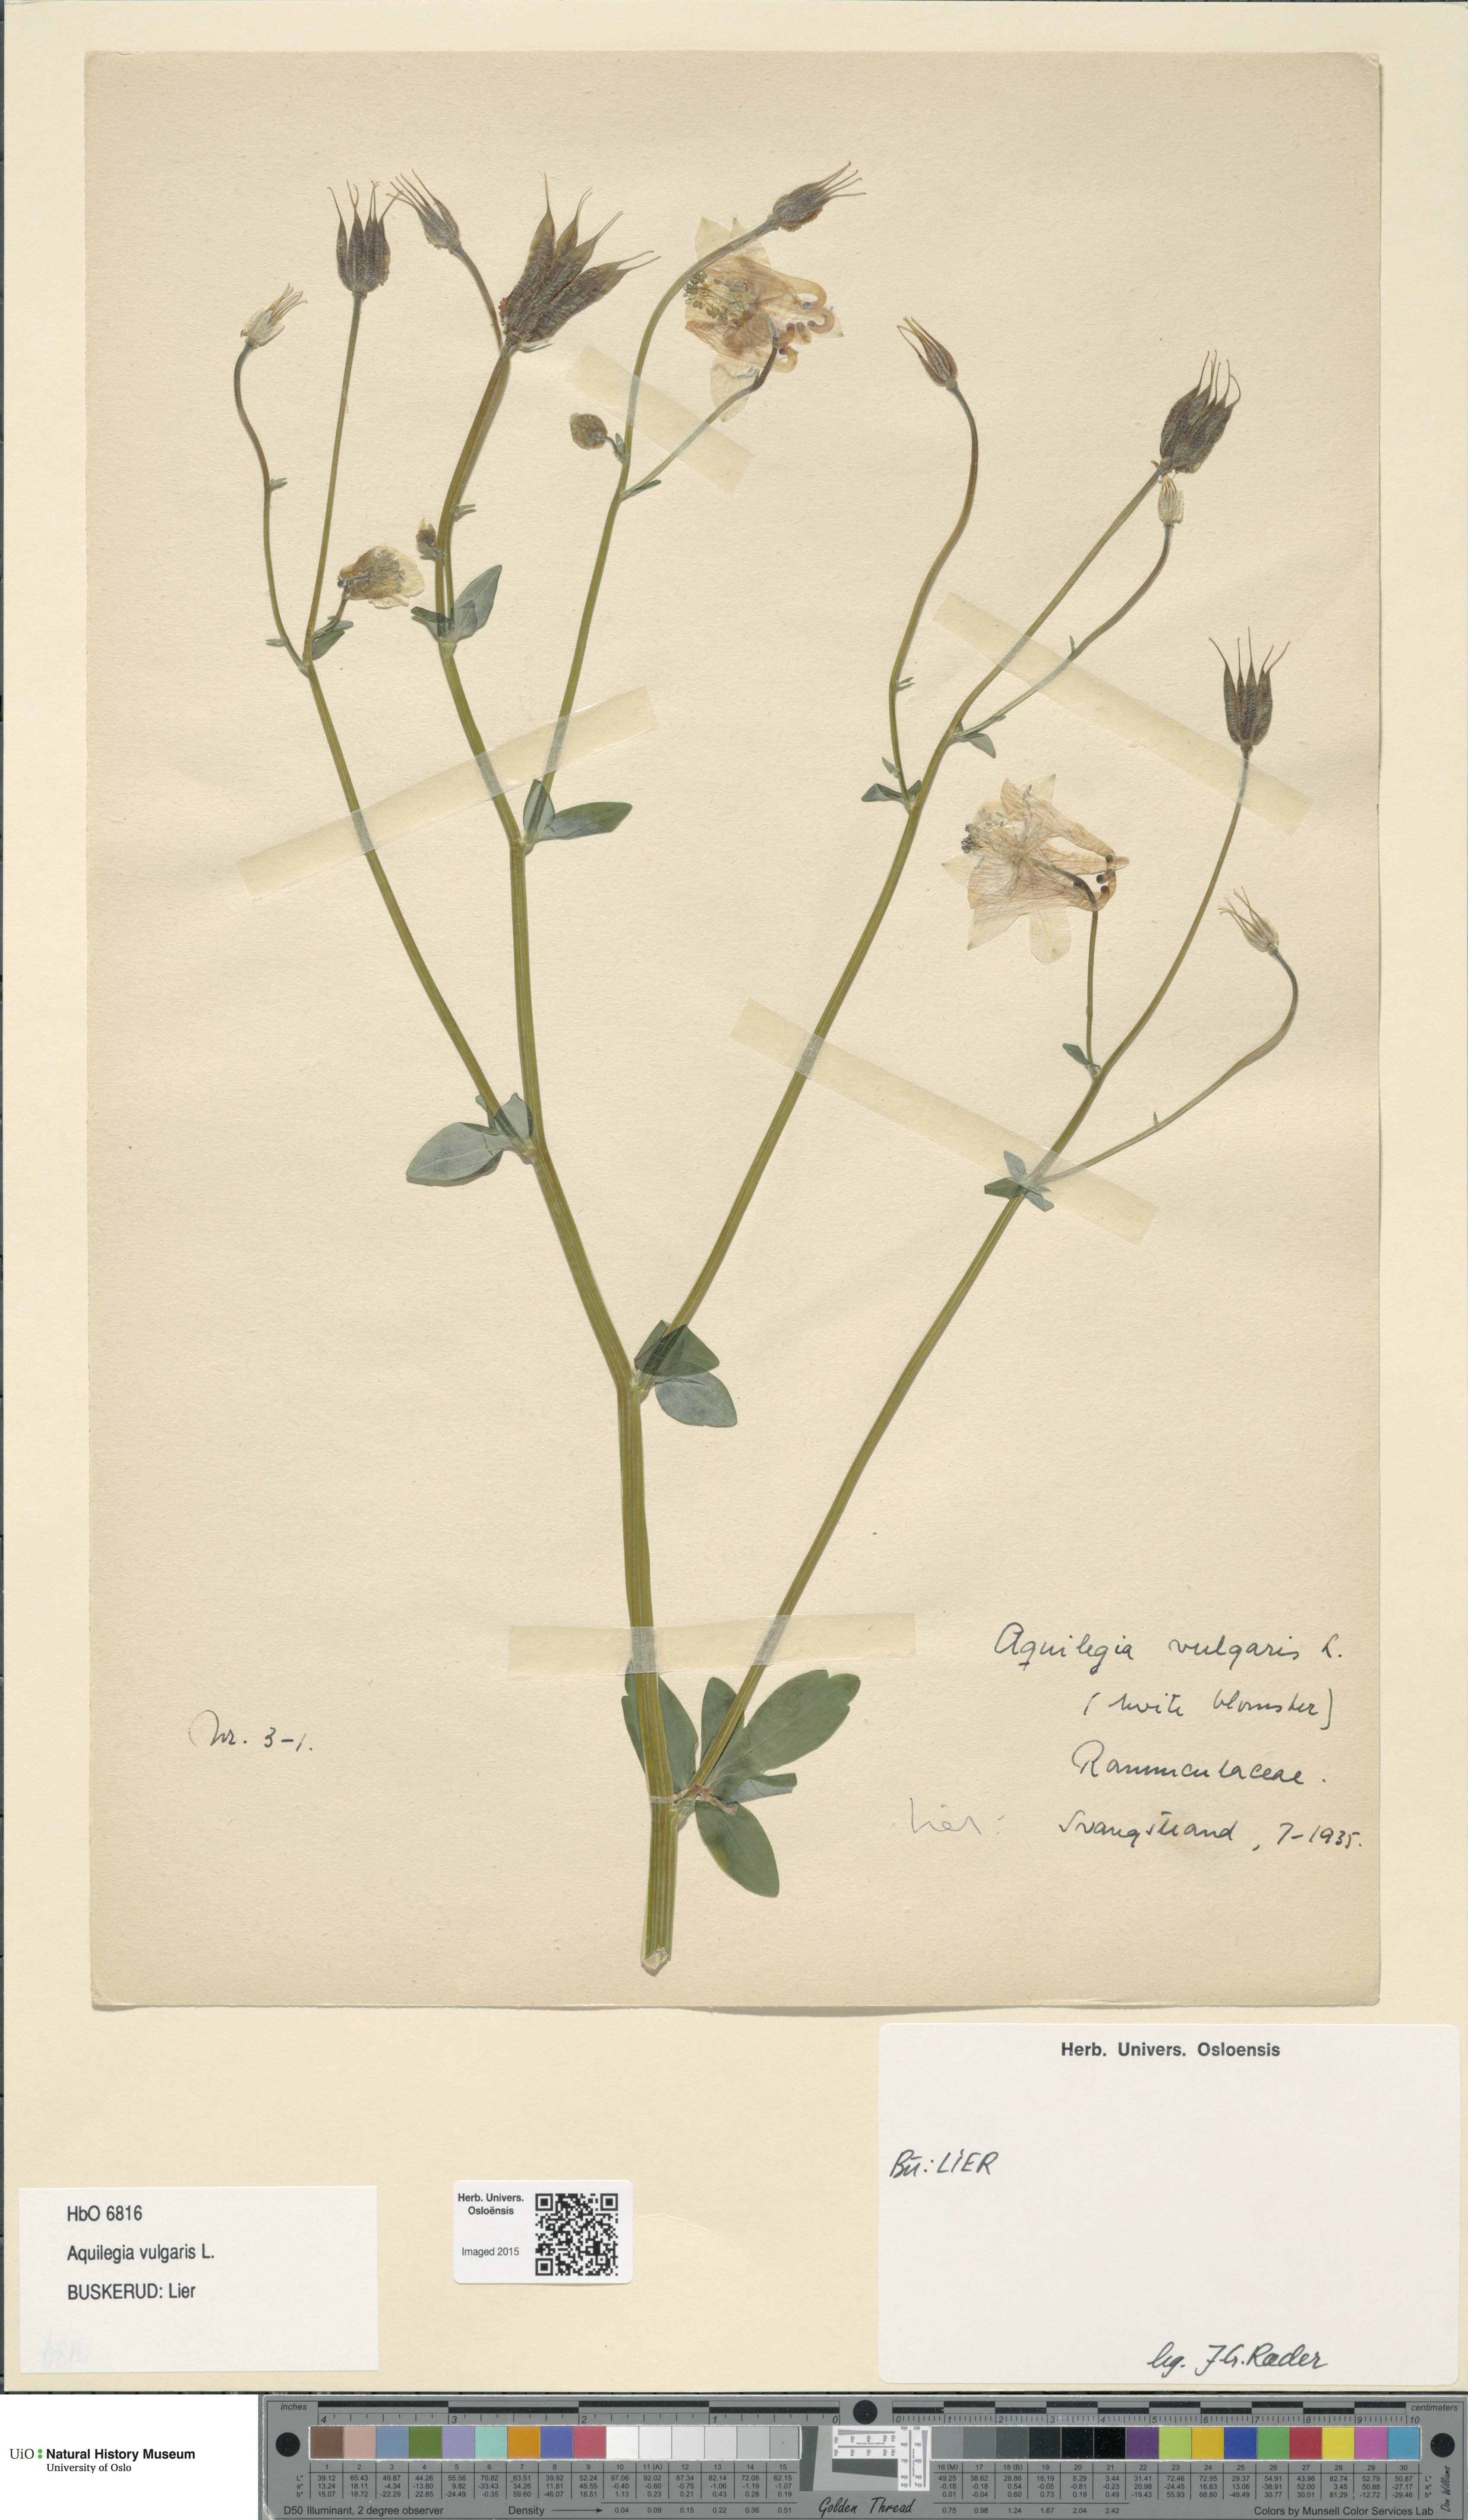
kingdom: Plantae
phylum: Tracheophyta
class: Magnoliopsida
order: Ranunculales
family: Ranunculaceae
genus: Aquilegia
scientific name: Aquilegia vulgaris
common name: Columbine
